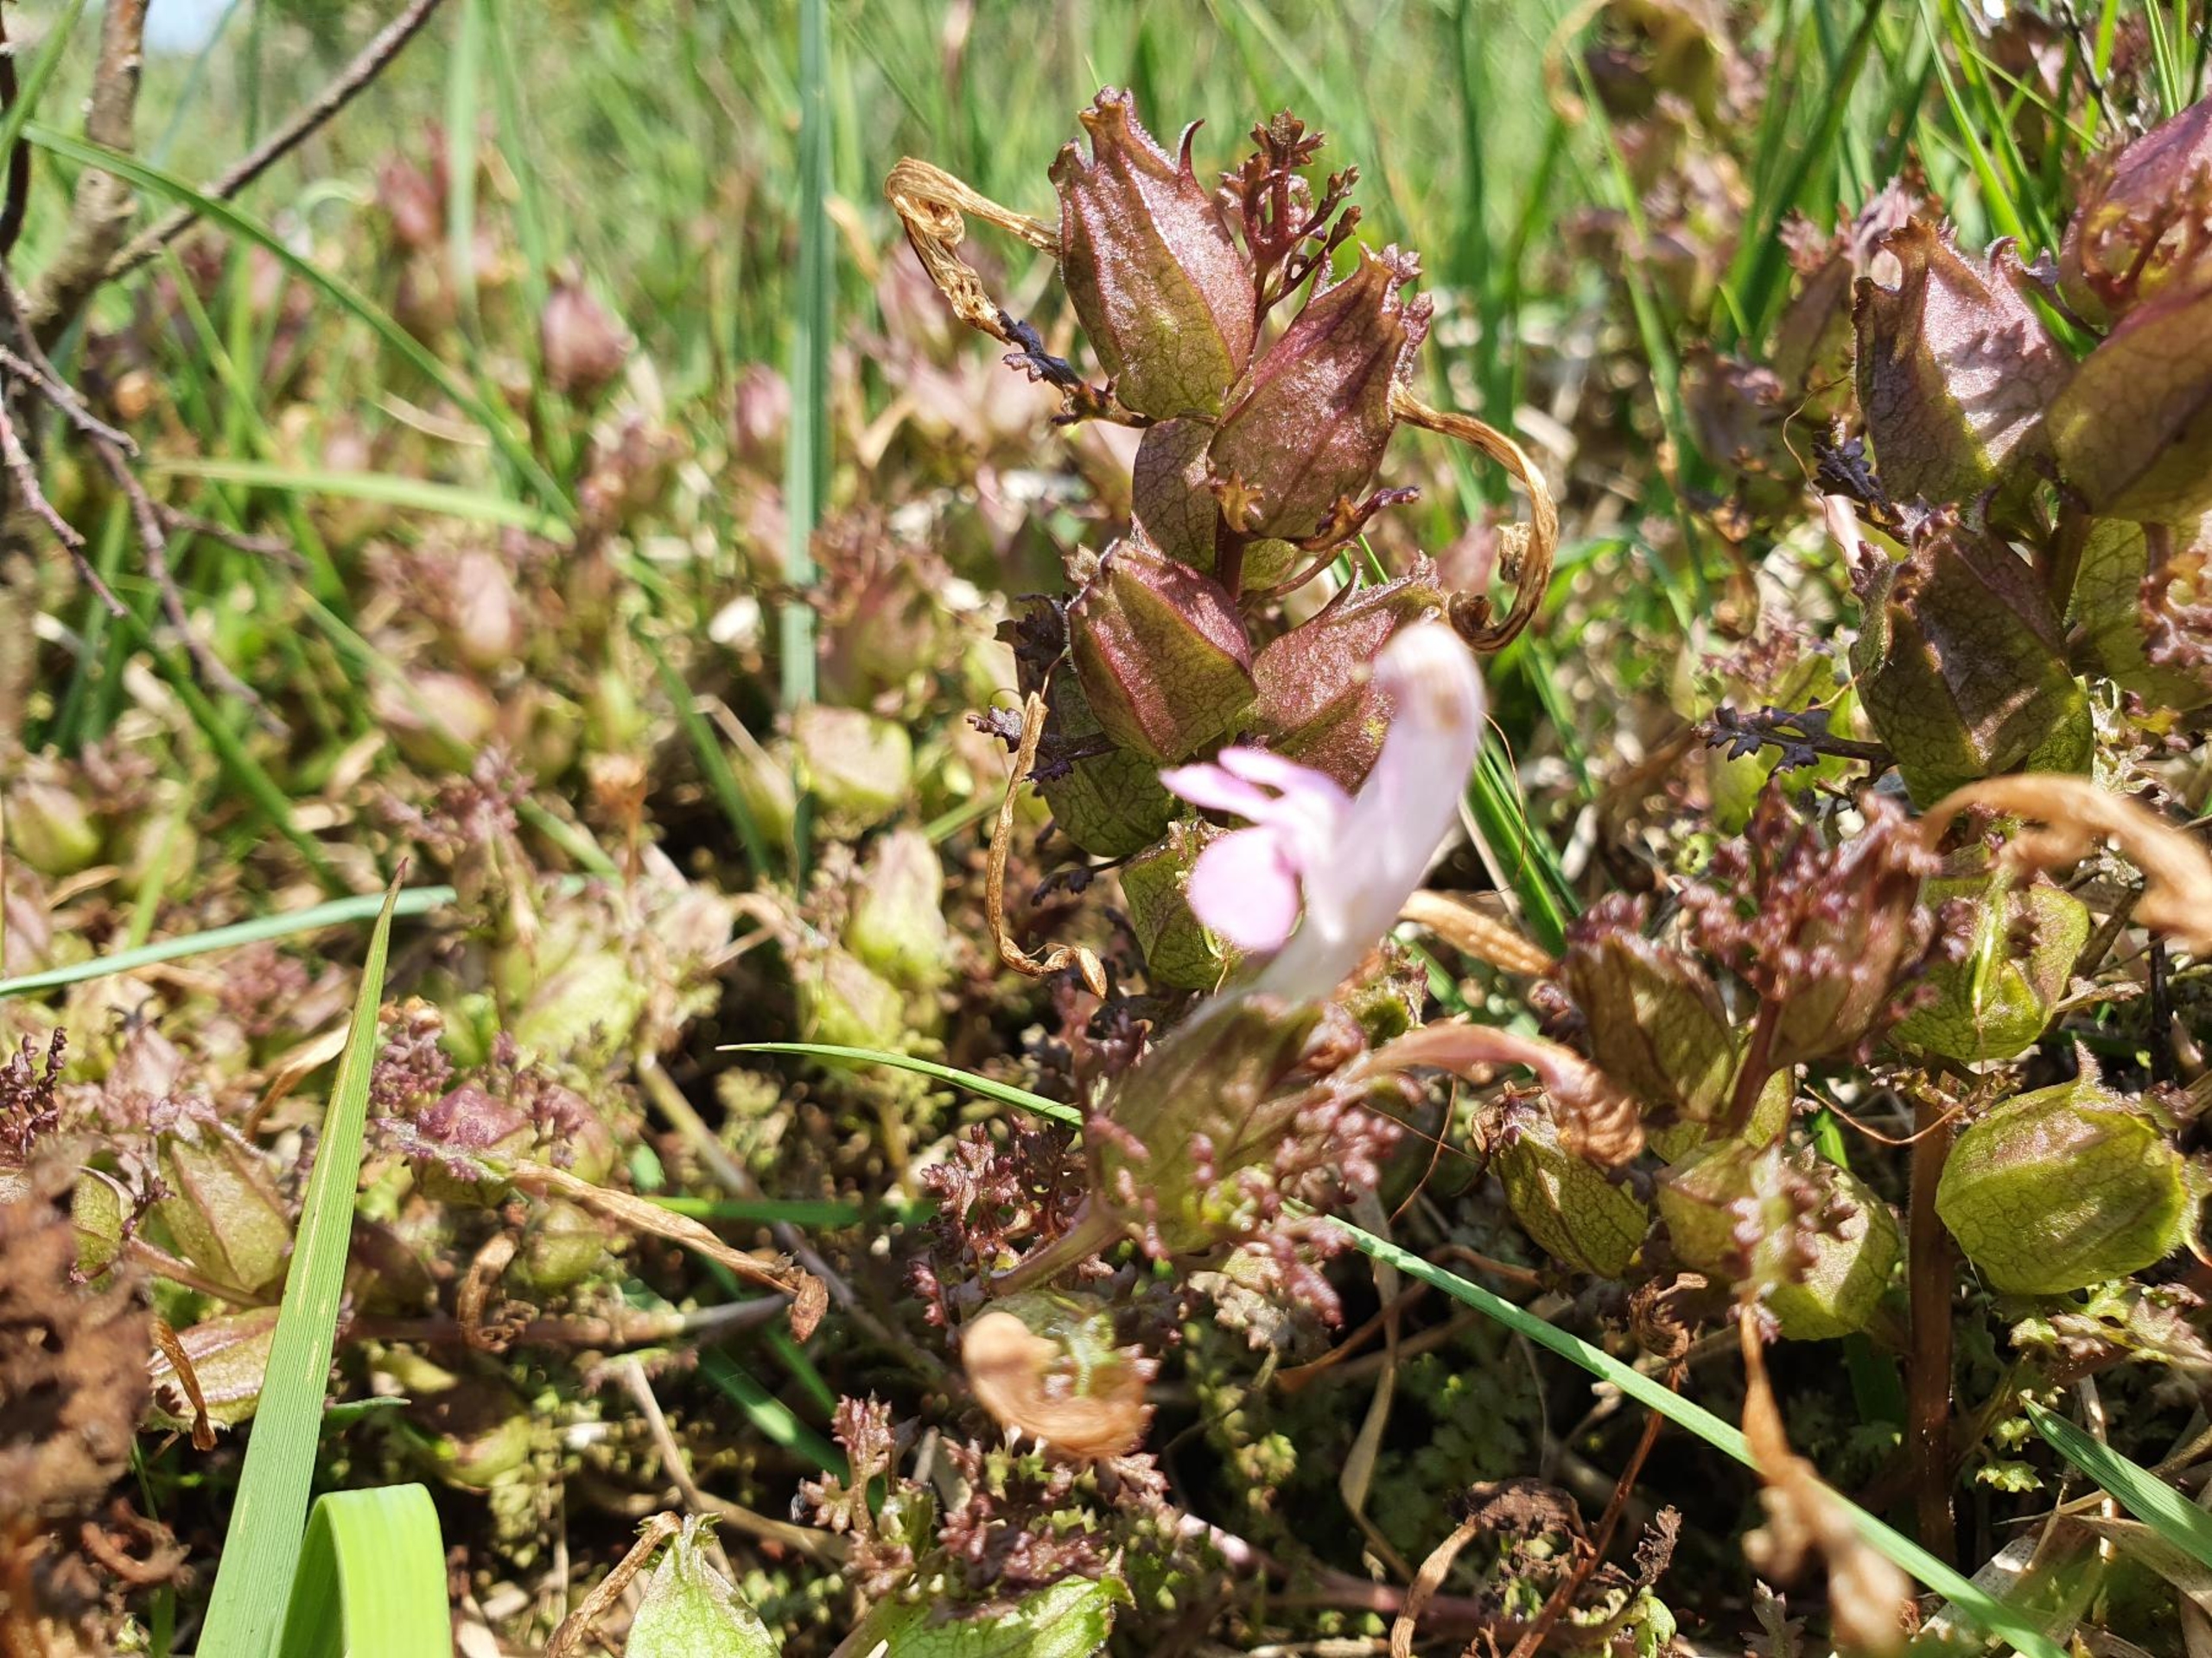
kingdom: Plantae
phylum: Tracheophyta
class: Magnoliopsida
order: Lamiales
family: Orobanchaceae
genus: Pedicularis
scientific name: Pedicularis sylvatica
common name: Mose-troldurt
